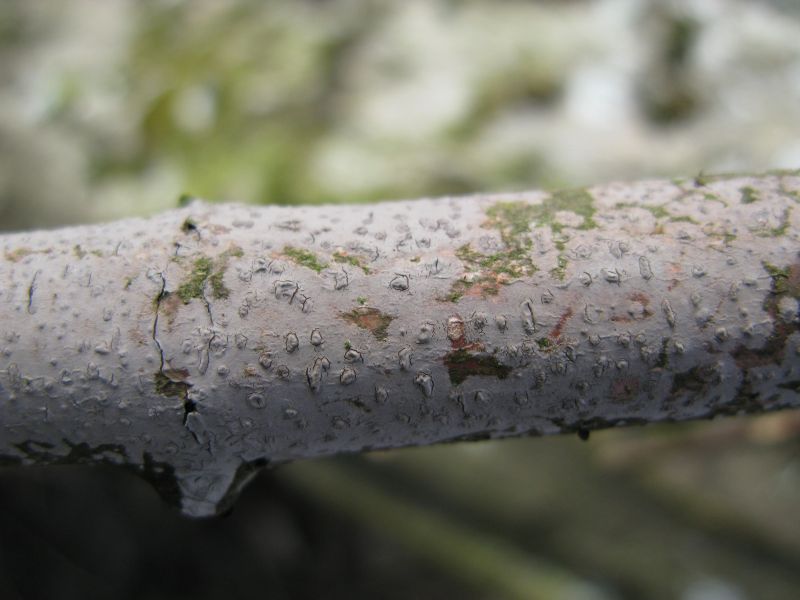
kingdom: Fungi
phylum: Basidiomycota
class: Agaricomycetes
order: Russulales
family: Peniophoraceae
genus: Peniophora
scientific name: Peniophora cinerea
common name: grå voksskind
